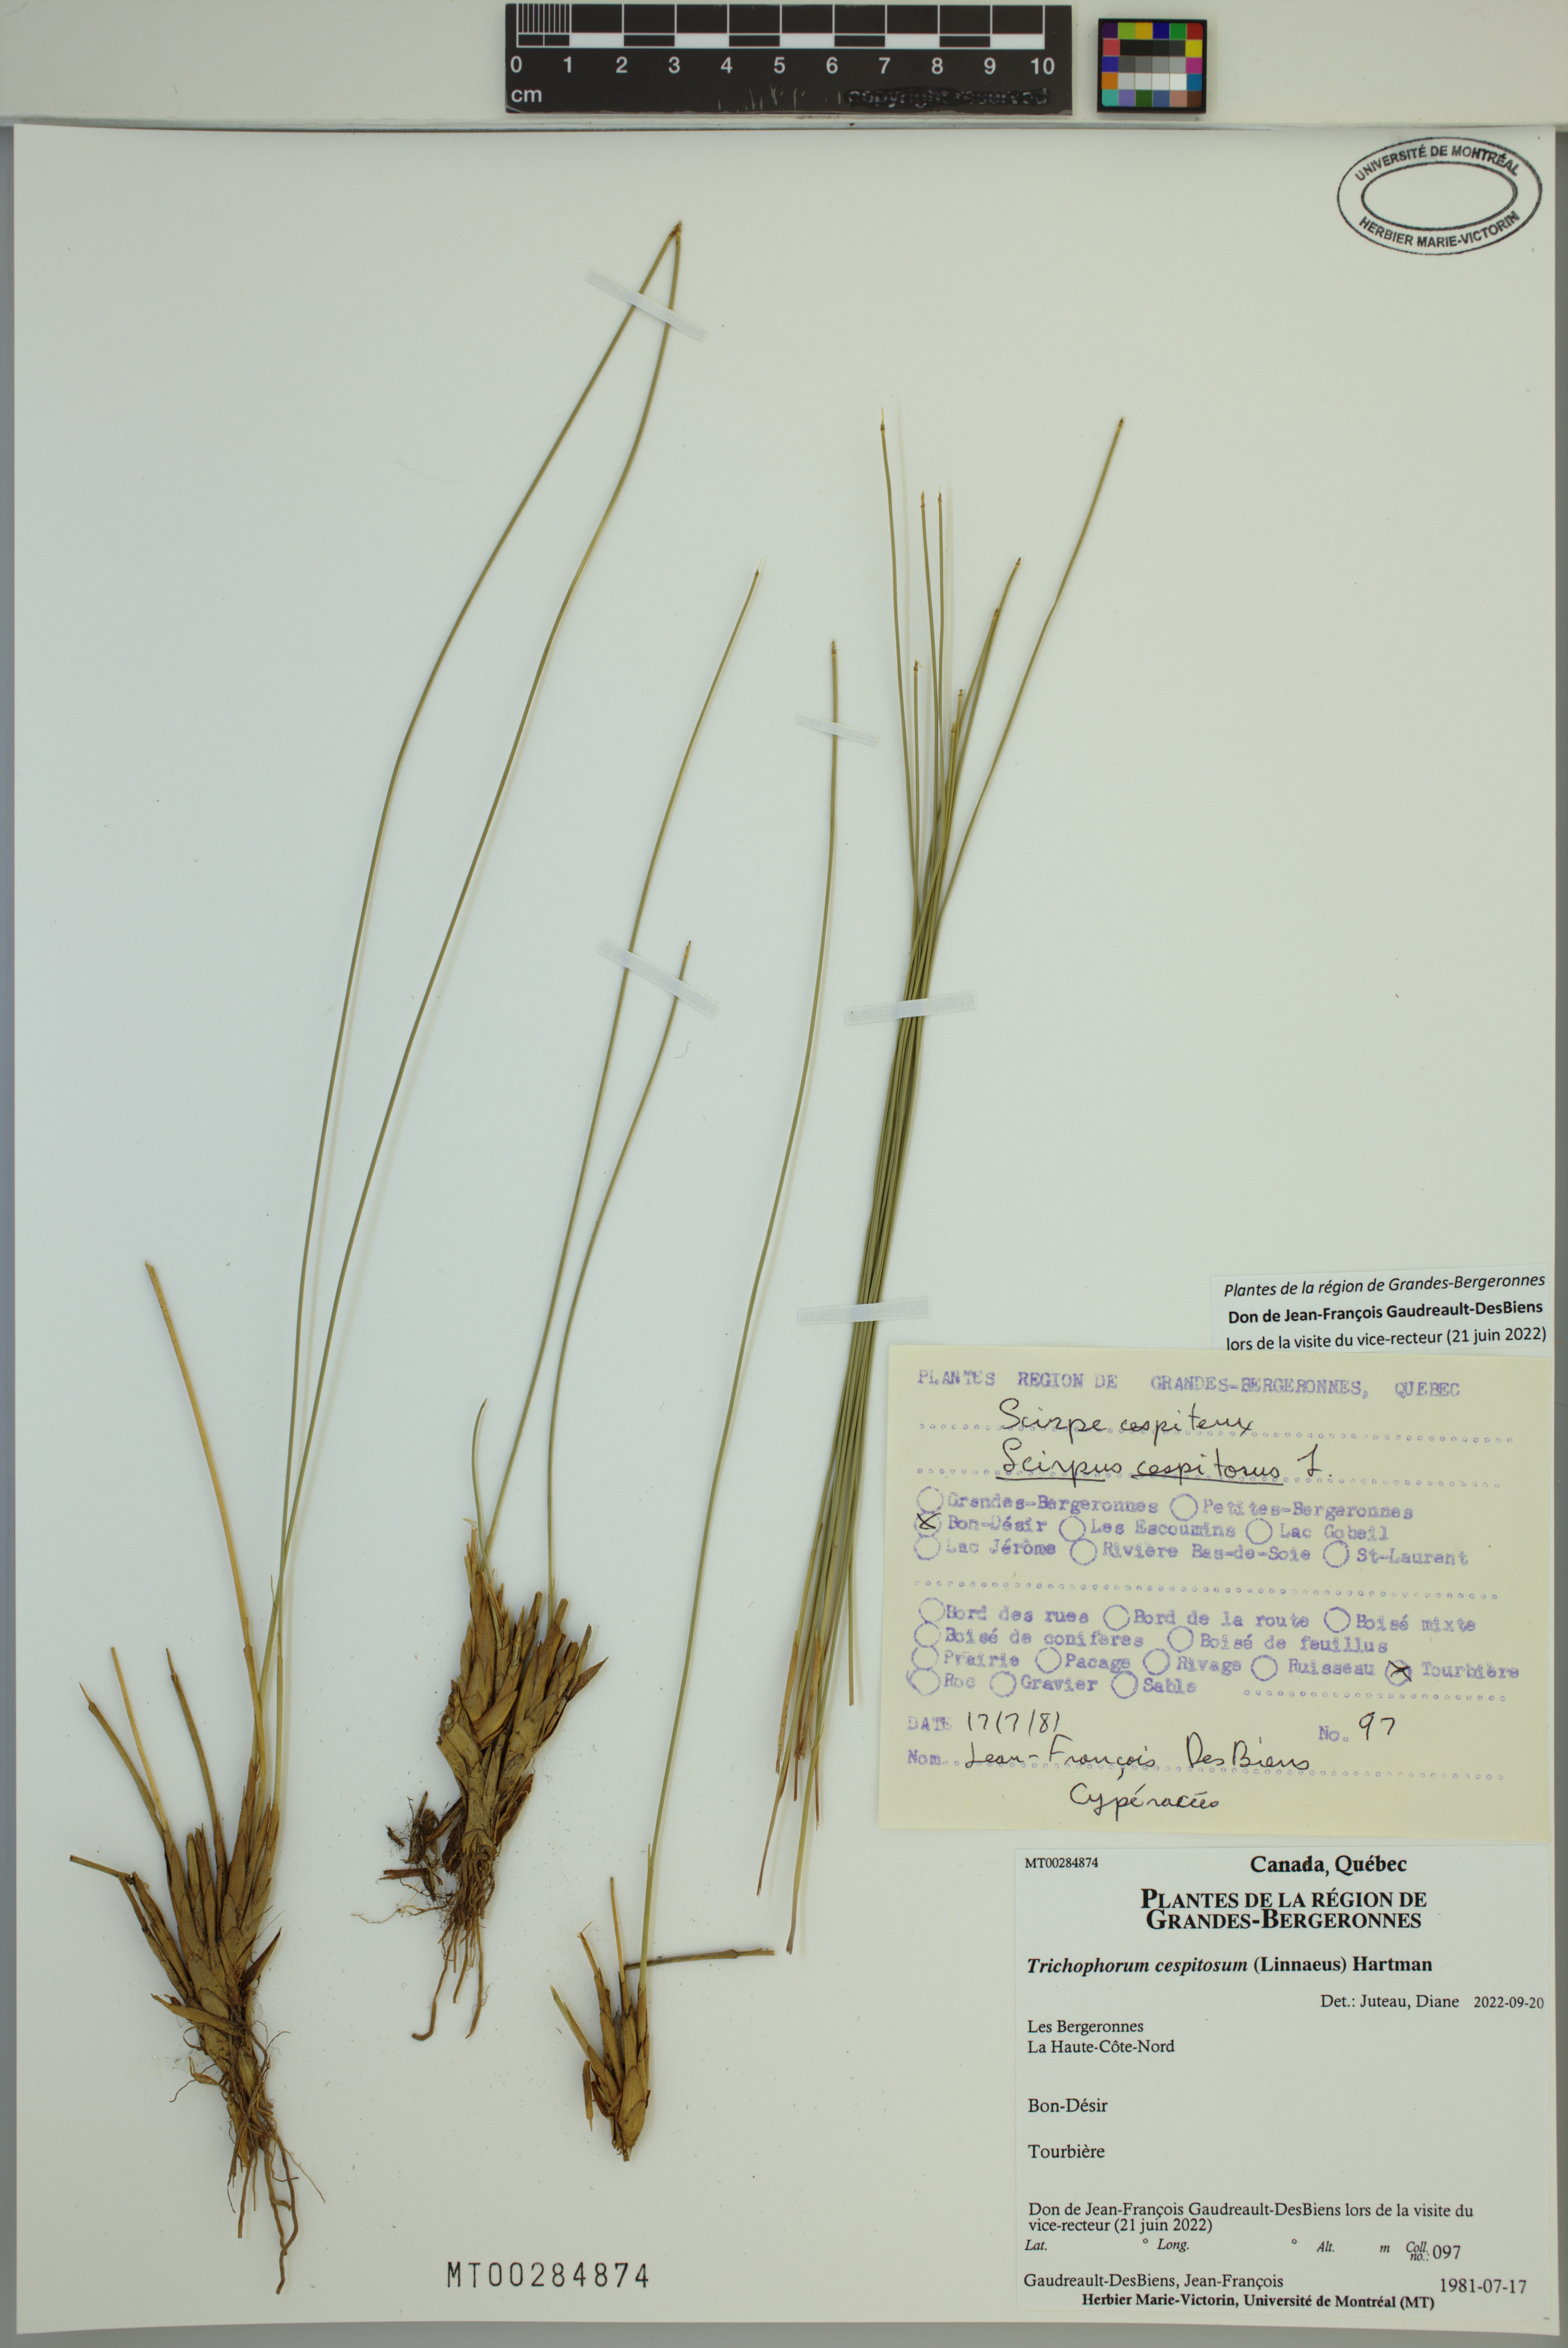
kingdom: Plantae
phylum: Tracheophyta
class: Liliopsida
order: Poales
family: Cyperaceae
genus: Trichophorum
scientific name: Trichophorum cespitosum
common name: Cespitose bulrush
